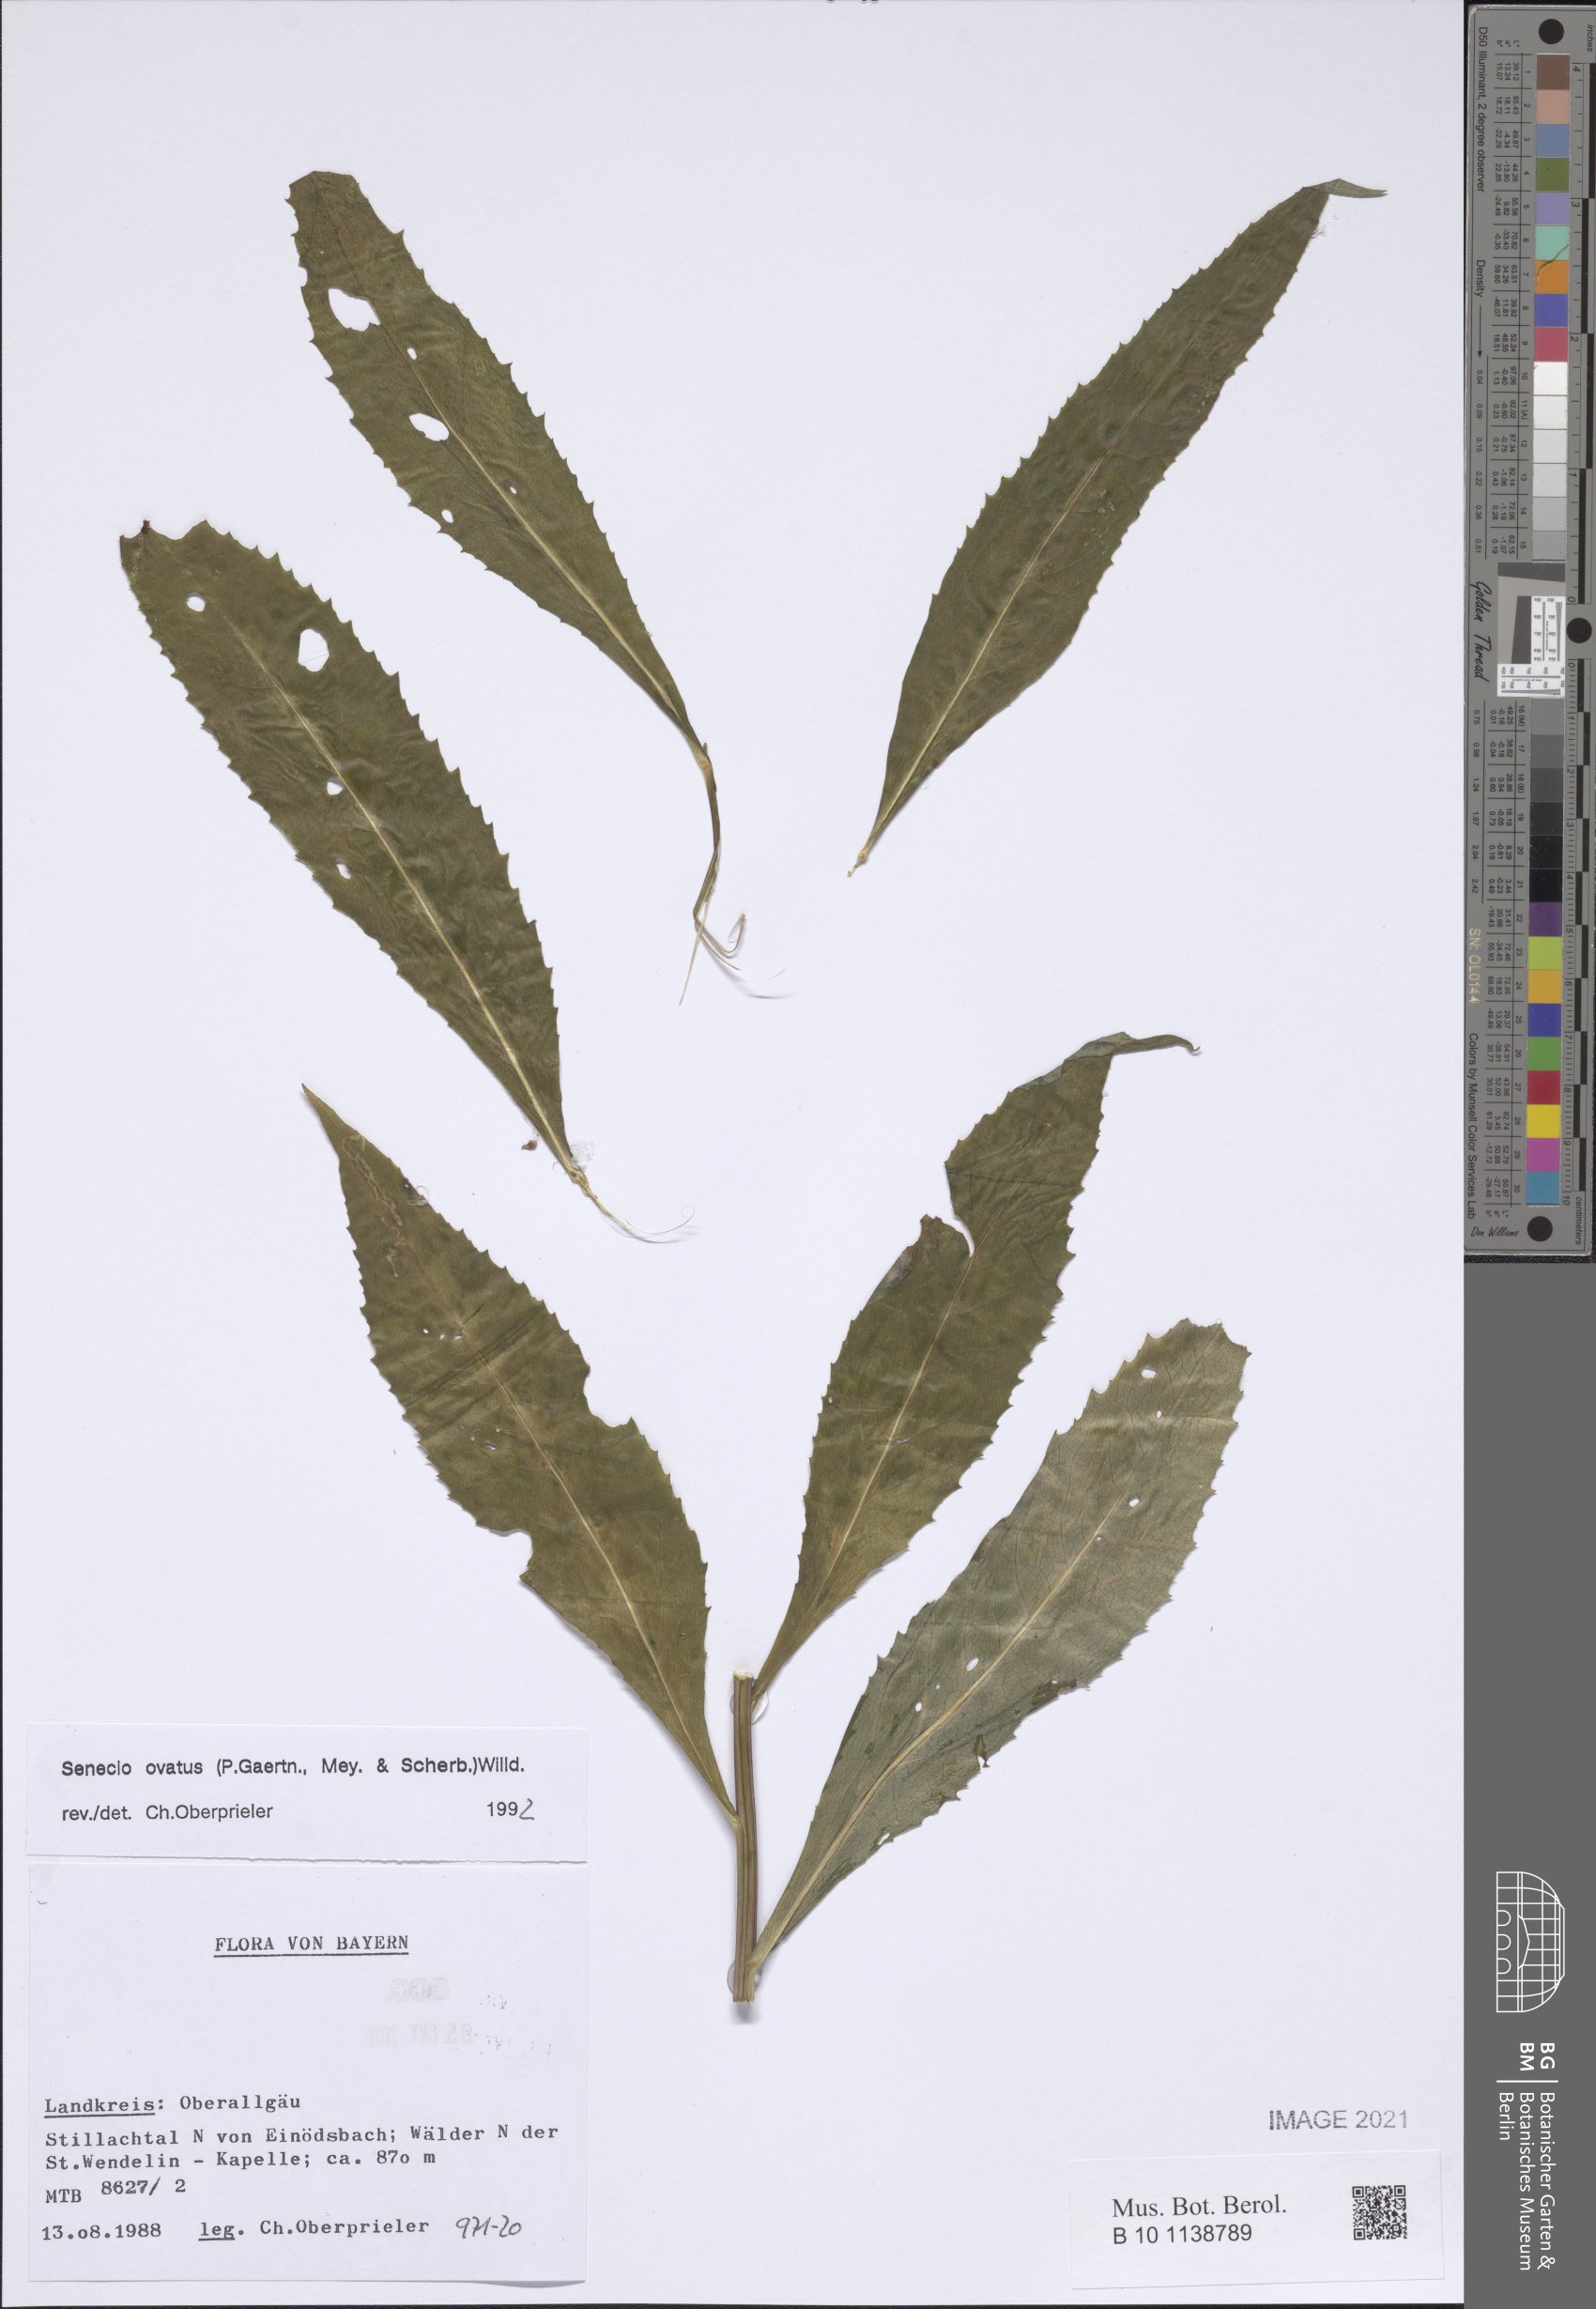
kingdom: Plantae
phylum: Tracheophyta
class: Magnoliopsida
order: Asterales
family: Asteraceae
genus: Senecio
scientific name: Senecio ovatus
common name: Wood ragwort
